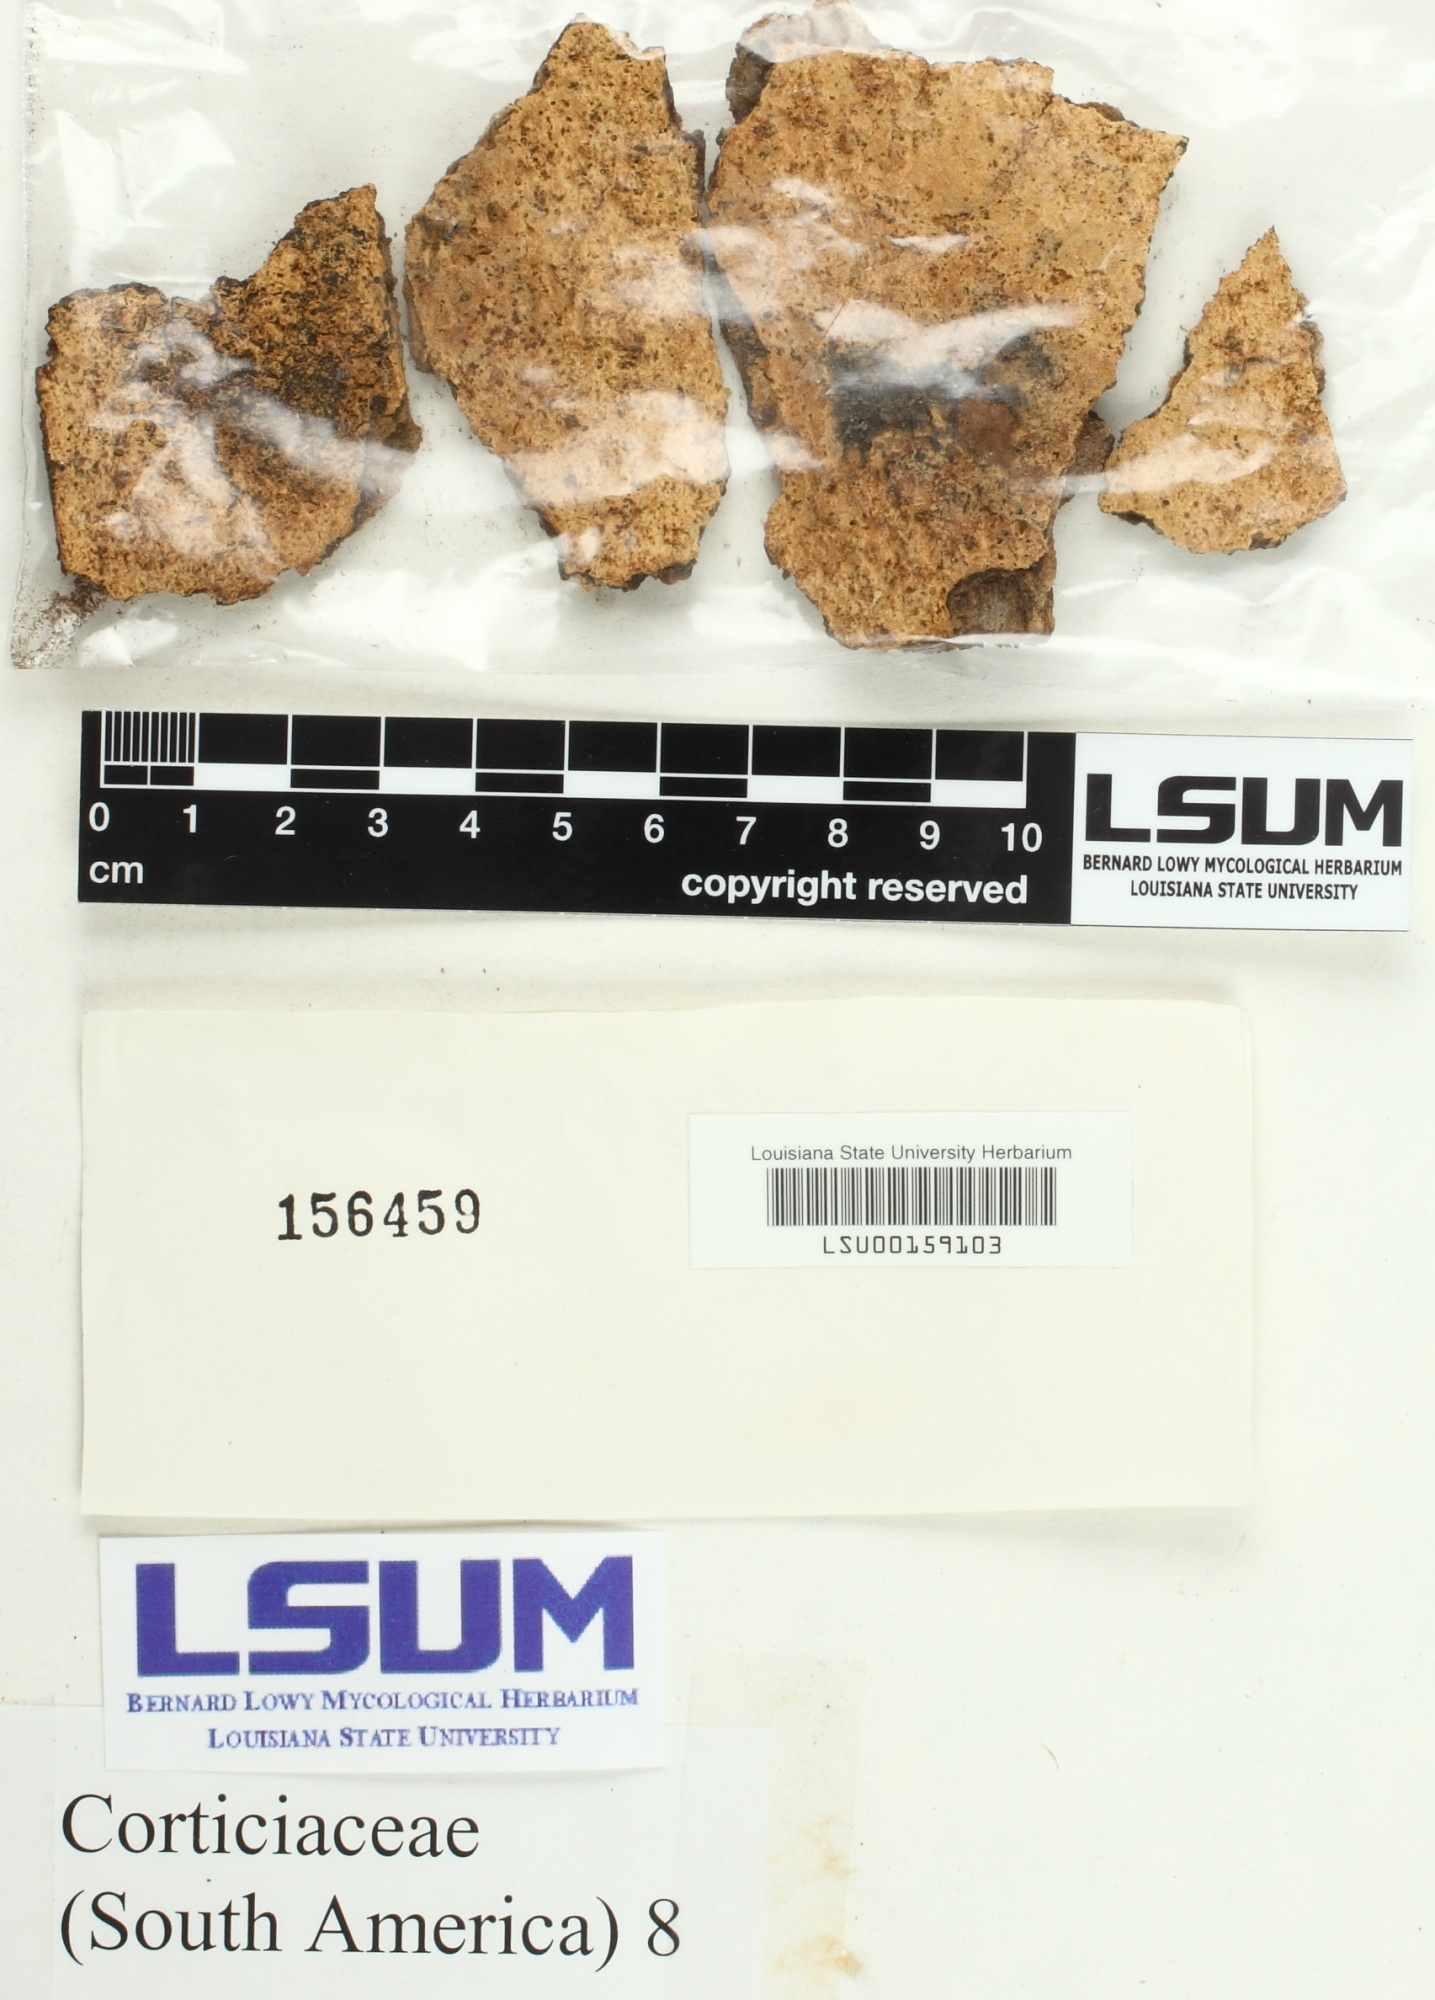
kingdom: Fungi
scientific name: Fungi
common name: Fungi
